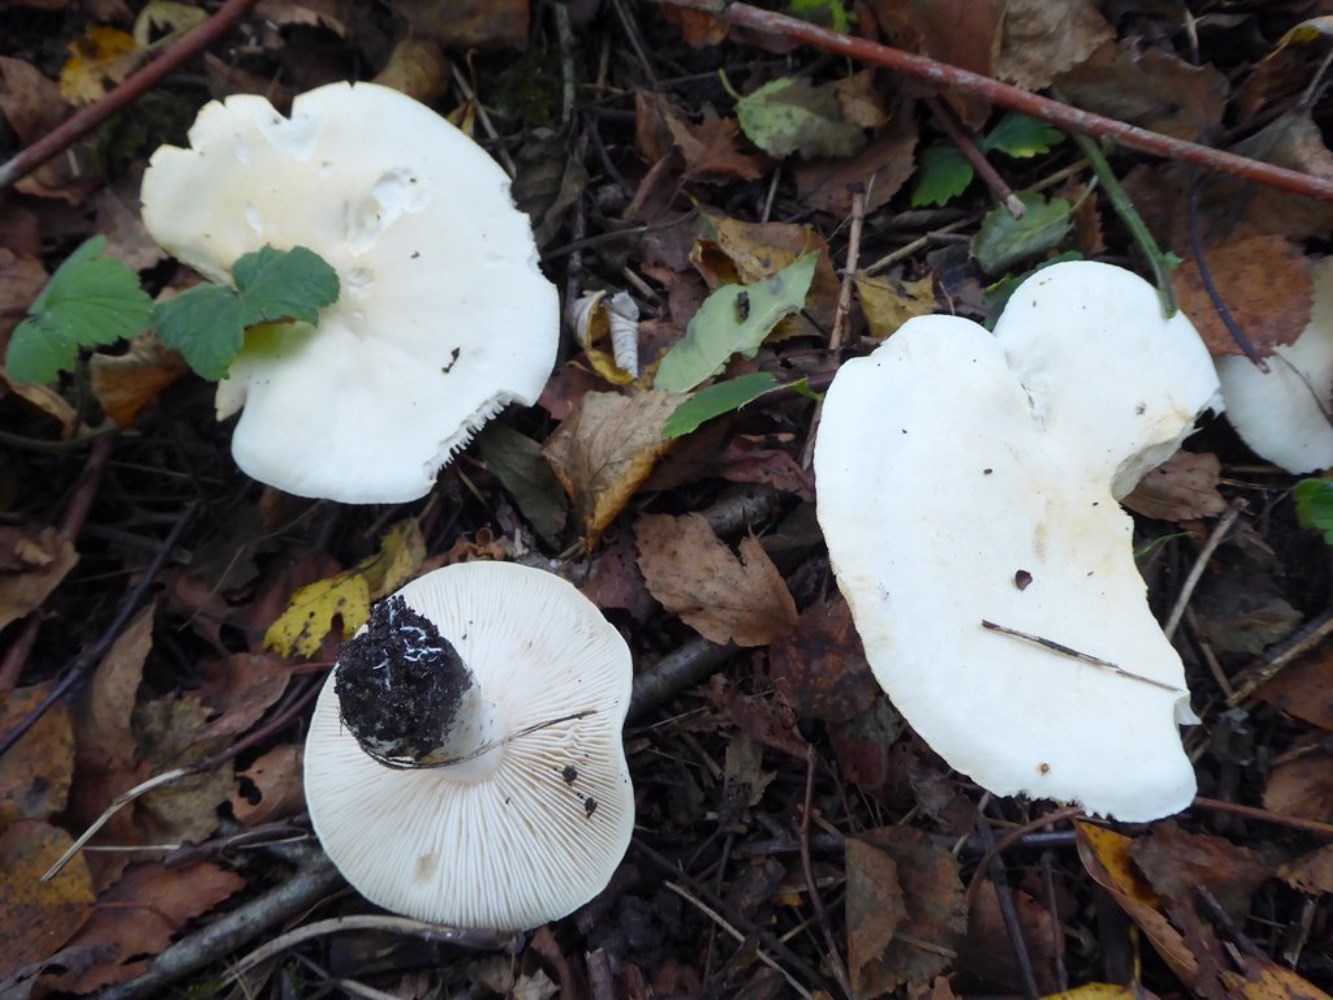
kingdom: Fungi
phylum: Basidiomycota
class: Agaricomycetes
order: Agaricales
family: Tricholomataceae
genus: Tricholoma
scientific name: Tricholoma stiparophyllum
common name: hvid ridderhat
